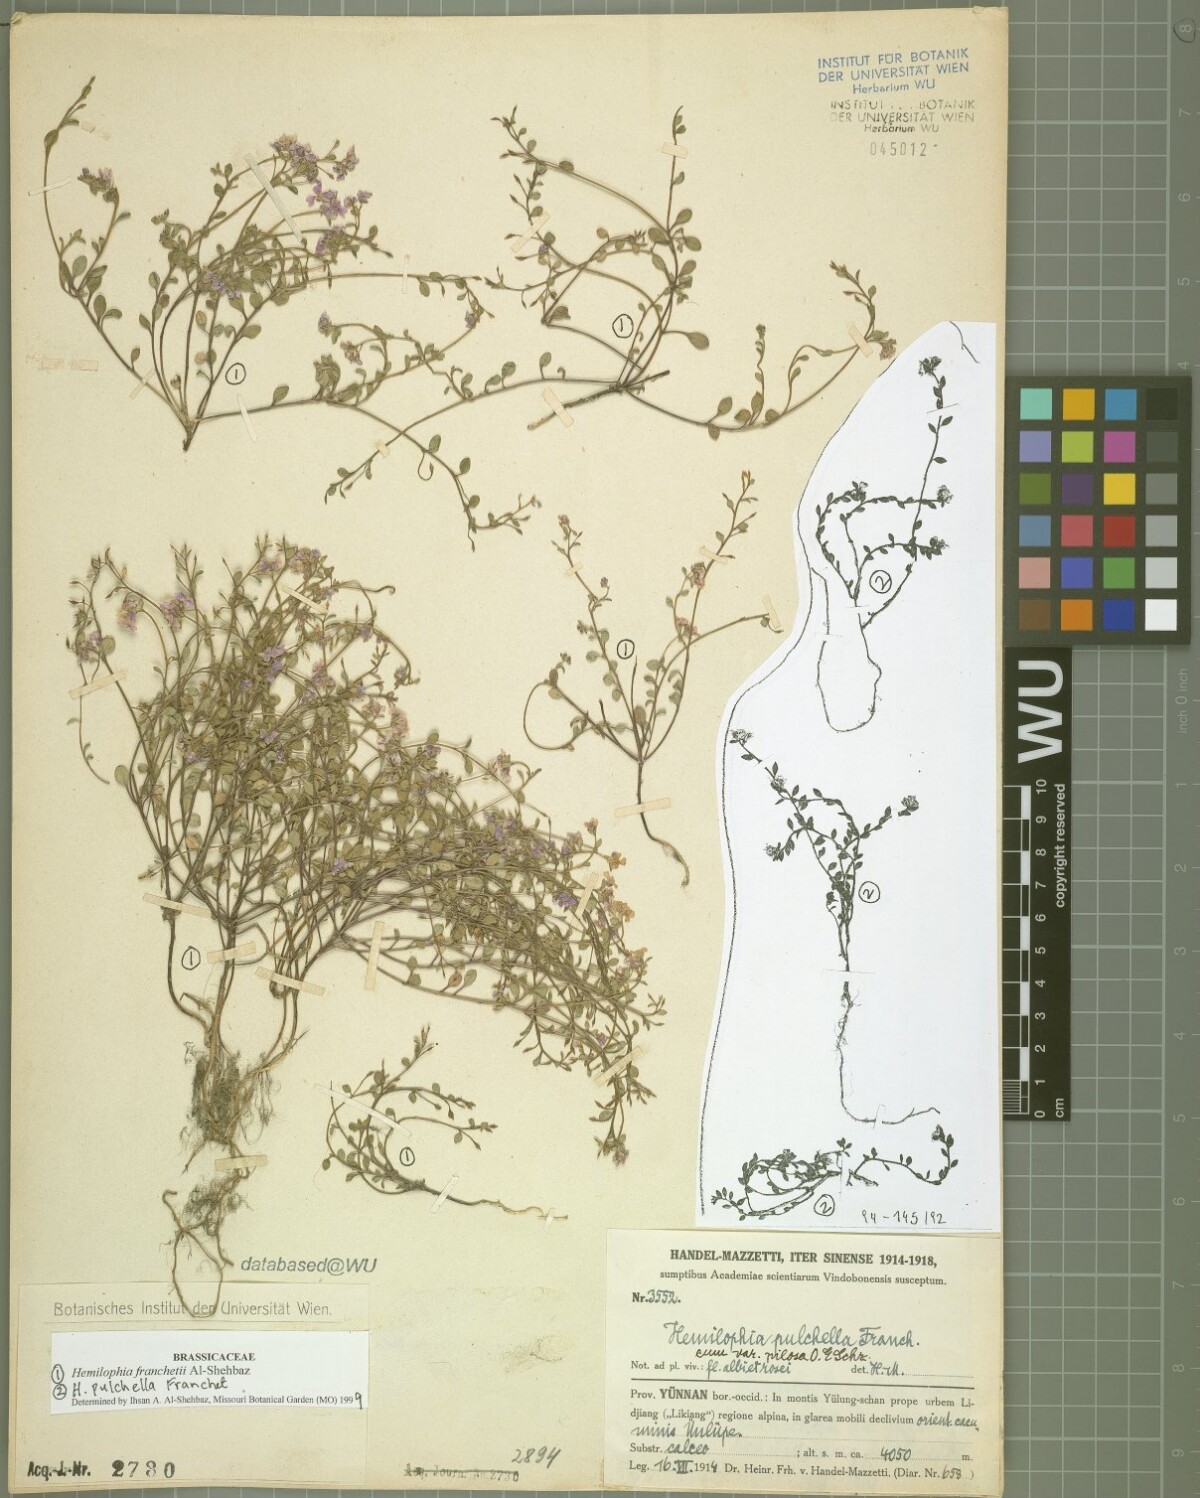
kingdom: Plantae
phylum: Tracheophyta
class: Magnoliopsida
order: Brassicales
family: Brassicaceae
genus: Hemilophia
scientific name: Hemilophia franchetii
